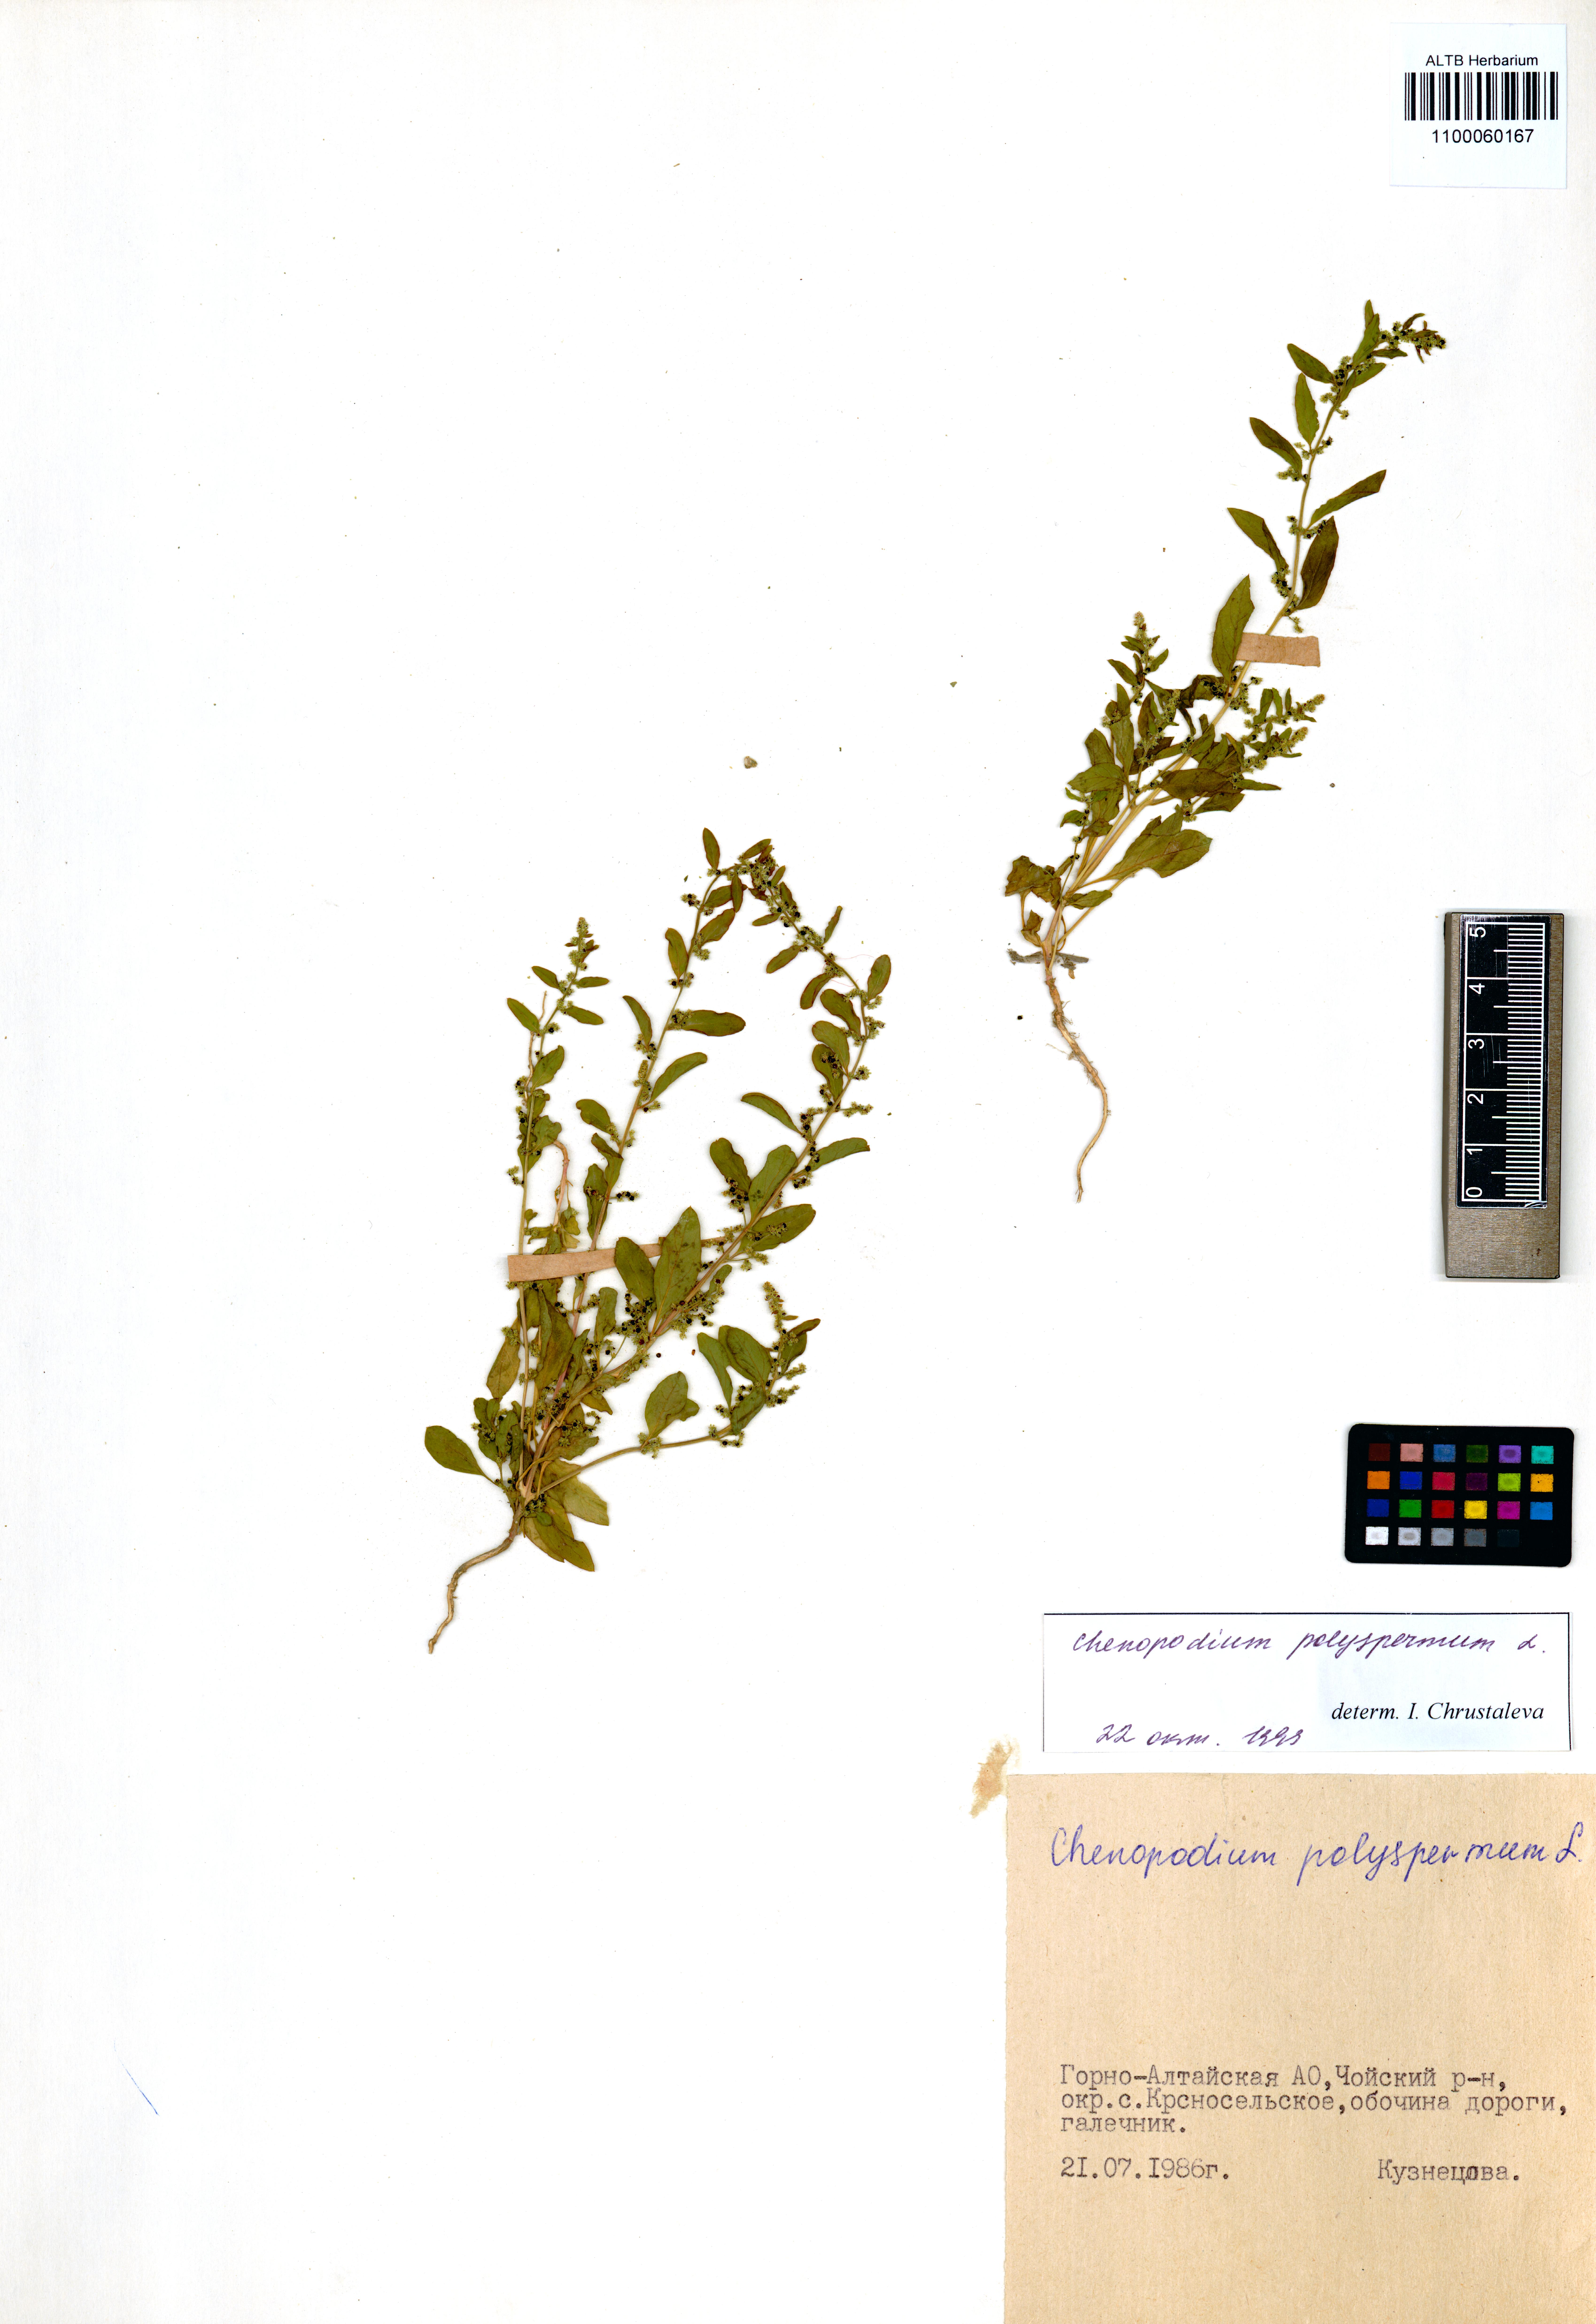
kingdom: Plantae
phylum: Tracheophyta
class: Magnoliopsida
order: Caryophyllales
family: Amaranthaceae
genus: Lipandra
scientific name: Lipandra polysperma
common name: Many-seed goosefoot
